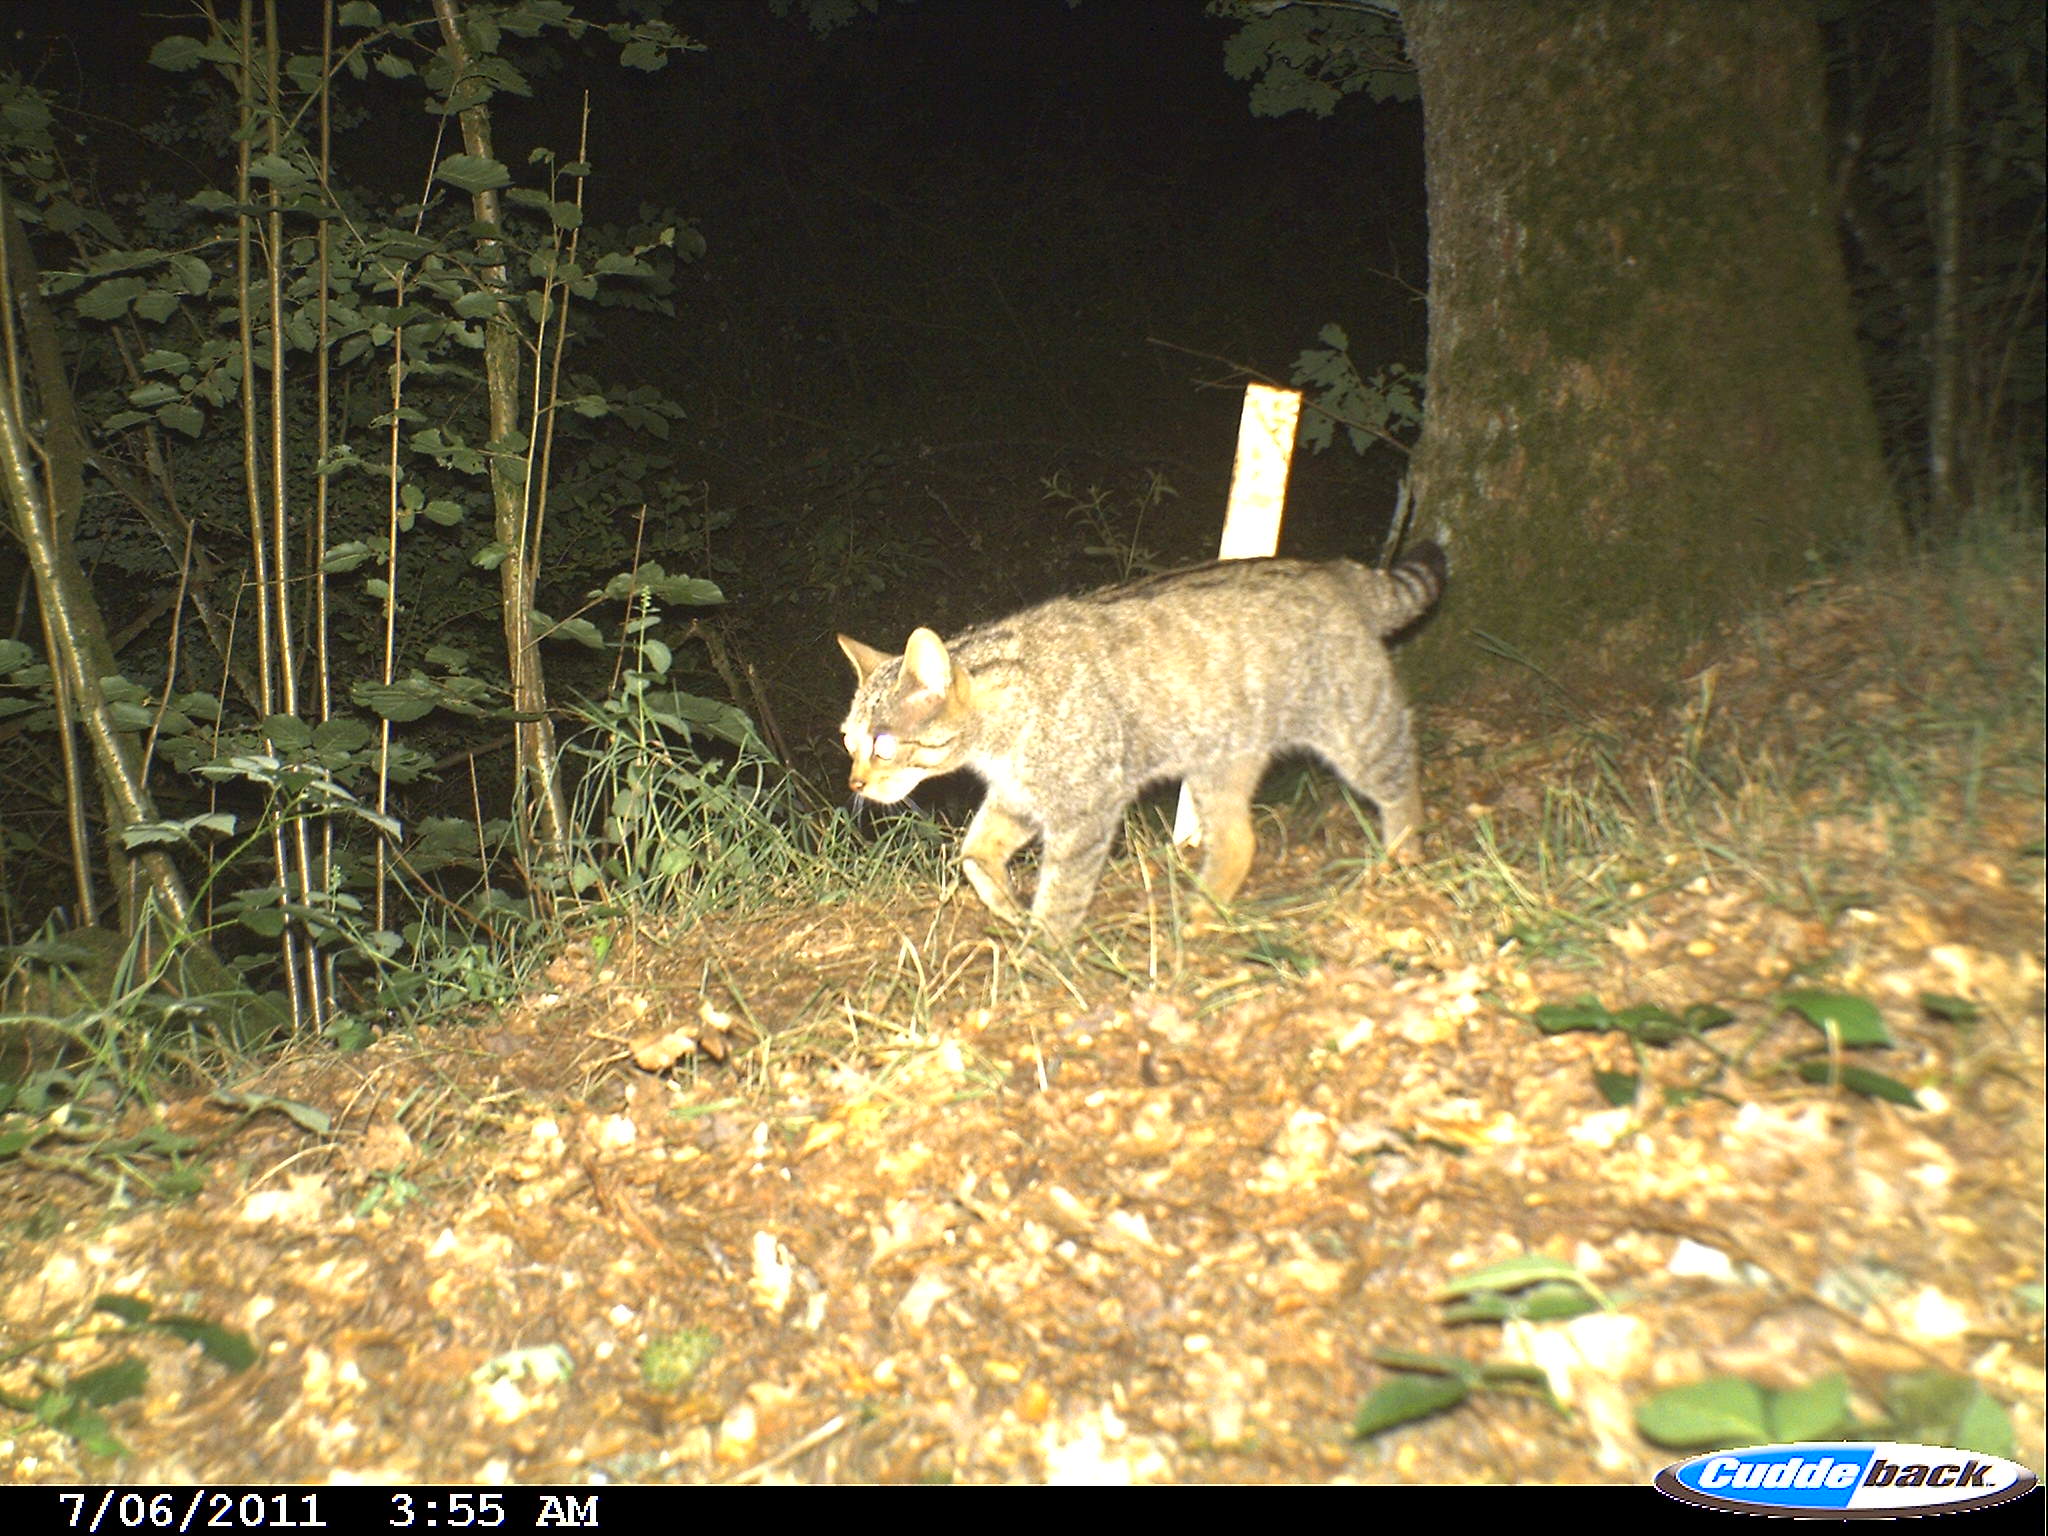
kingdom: Animalia
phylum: Chordata
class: Mammalia
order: Carnivora
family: Felidae
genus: Felis
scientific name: Felis silvestris
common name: Wildcat
